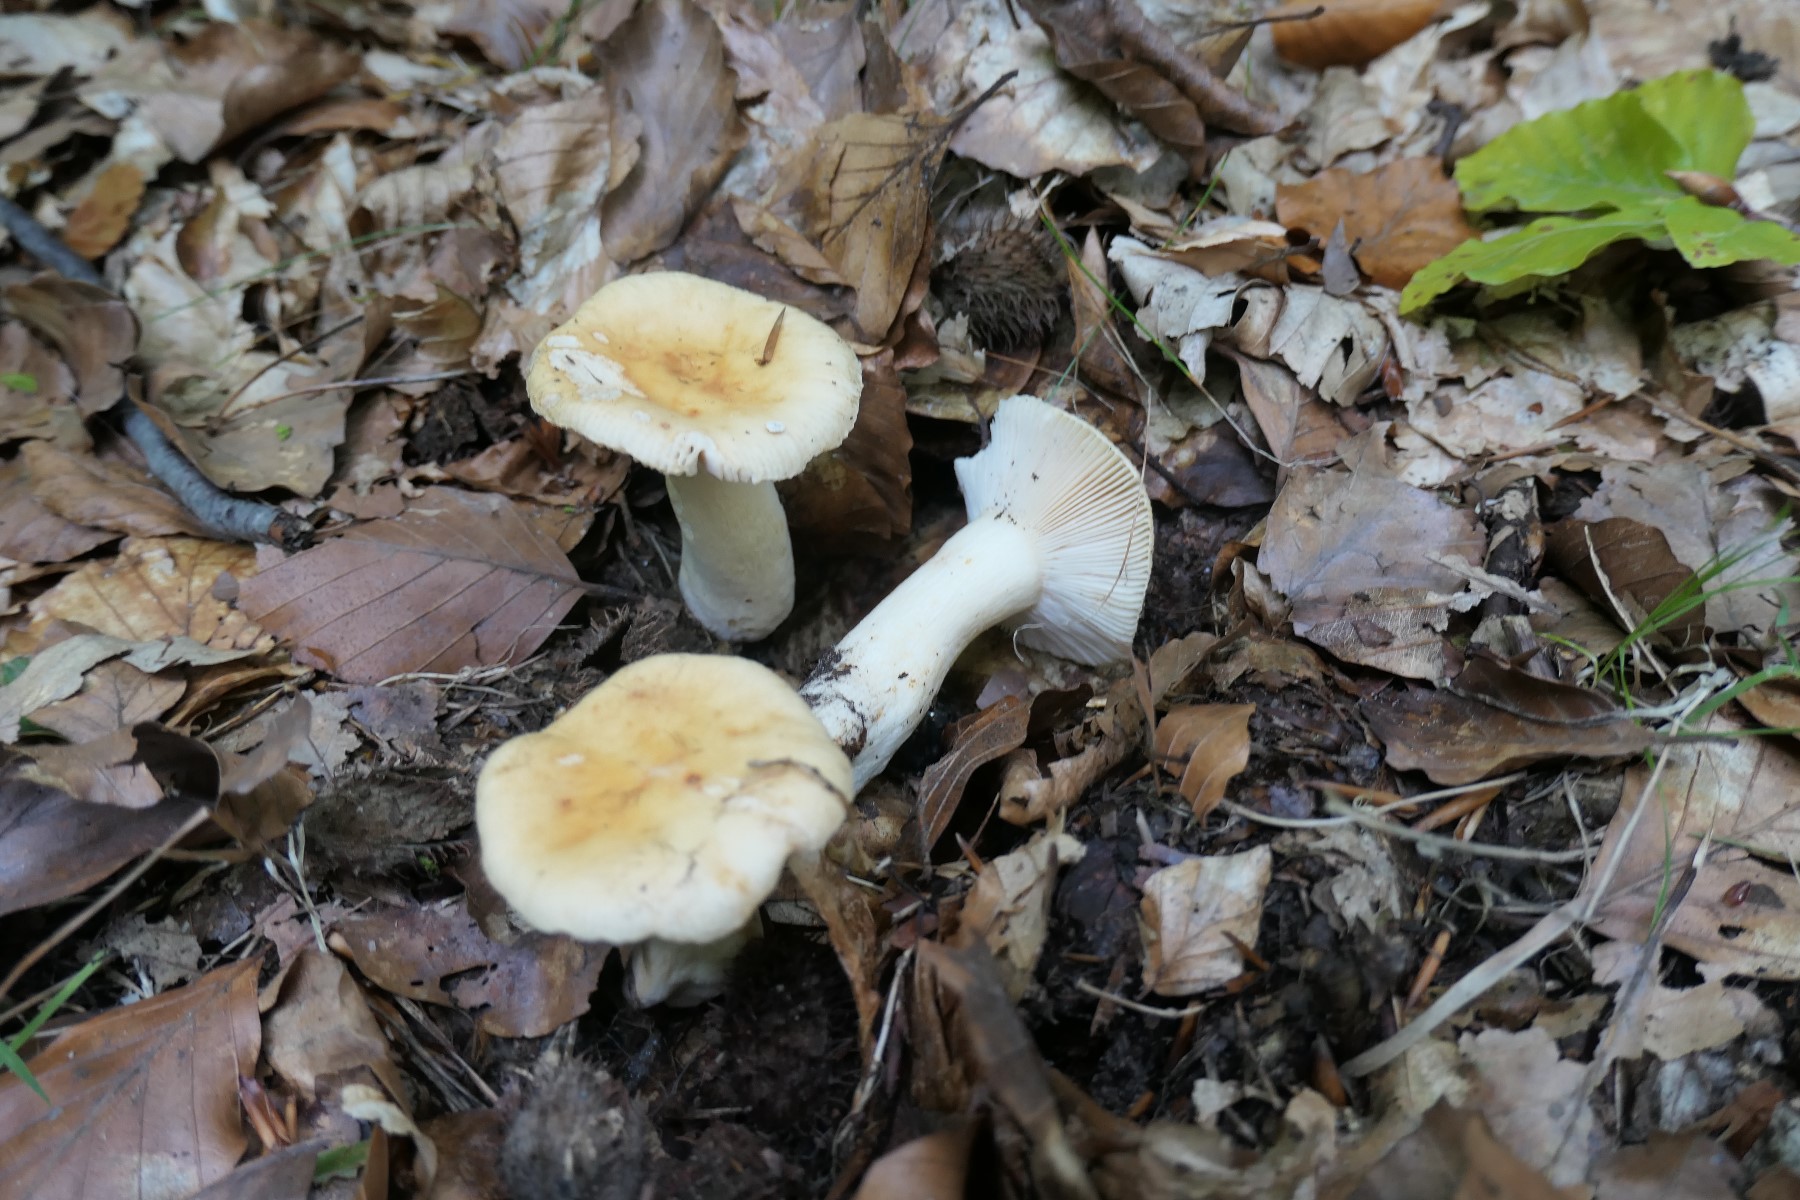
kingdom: Fungi
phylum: Basidiomycota
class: Agaricomycetes
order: Russulales
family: Russulaceae
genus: Russula
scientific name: Russula fellea
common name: galde-skørhat
